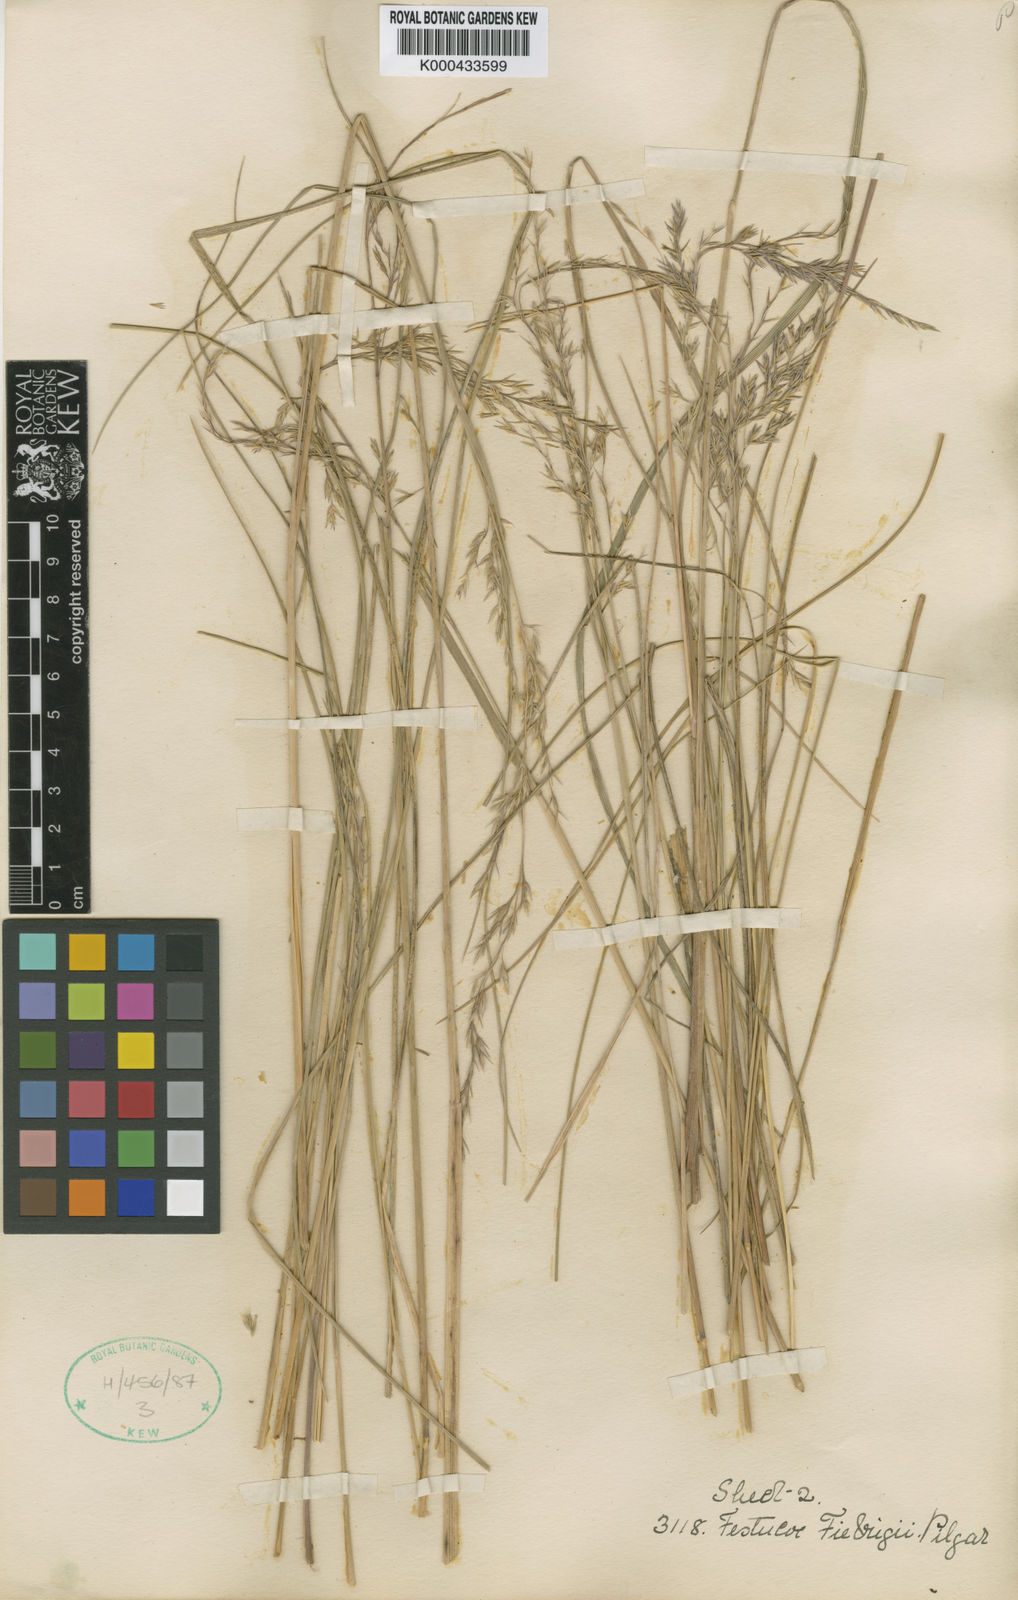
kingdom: Plantae
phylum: Tracheophyta
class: Liliopsida
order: Poales
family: Poaceae
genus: Festuca
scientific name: Festuca fiebrigii
